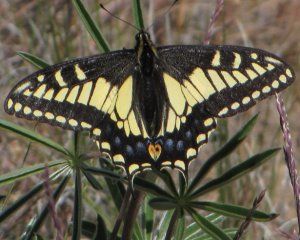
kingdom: Animalia
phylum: Arthropoda
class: Insecta
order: Lepidoptera
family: Papilionidae
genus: Papilio
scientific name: Papilio zelicaon
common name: Anise Swallowtail
